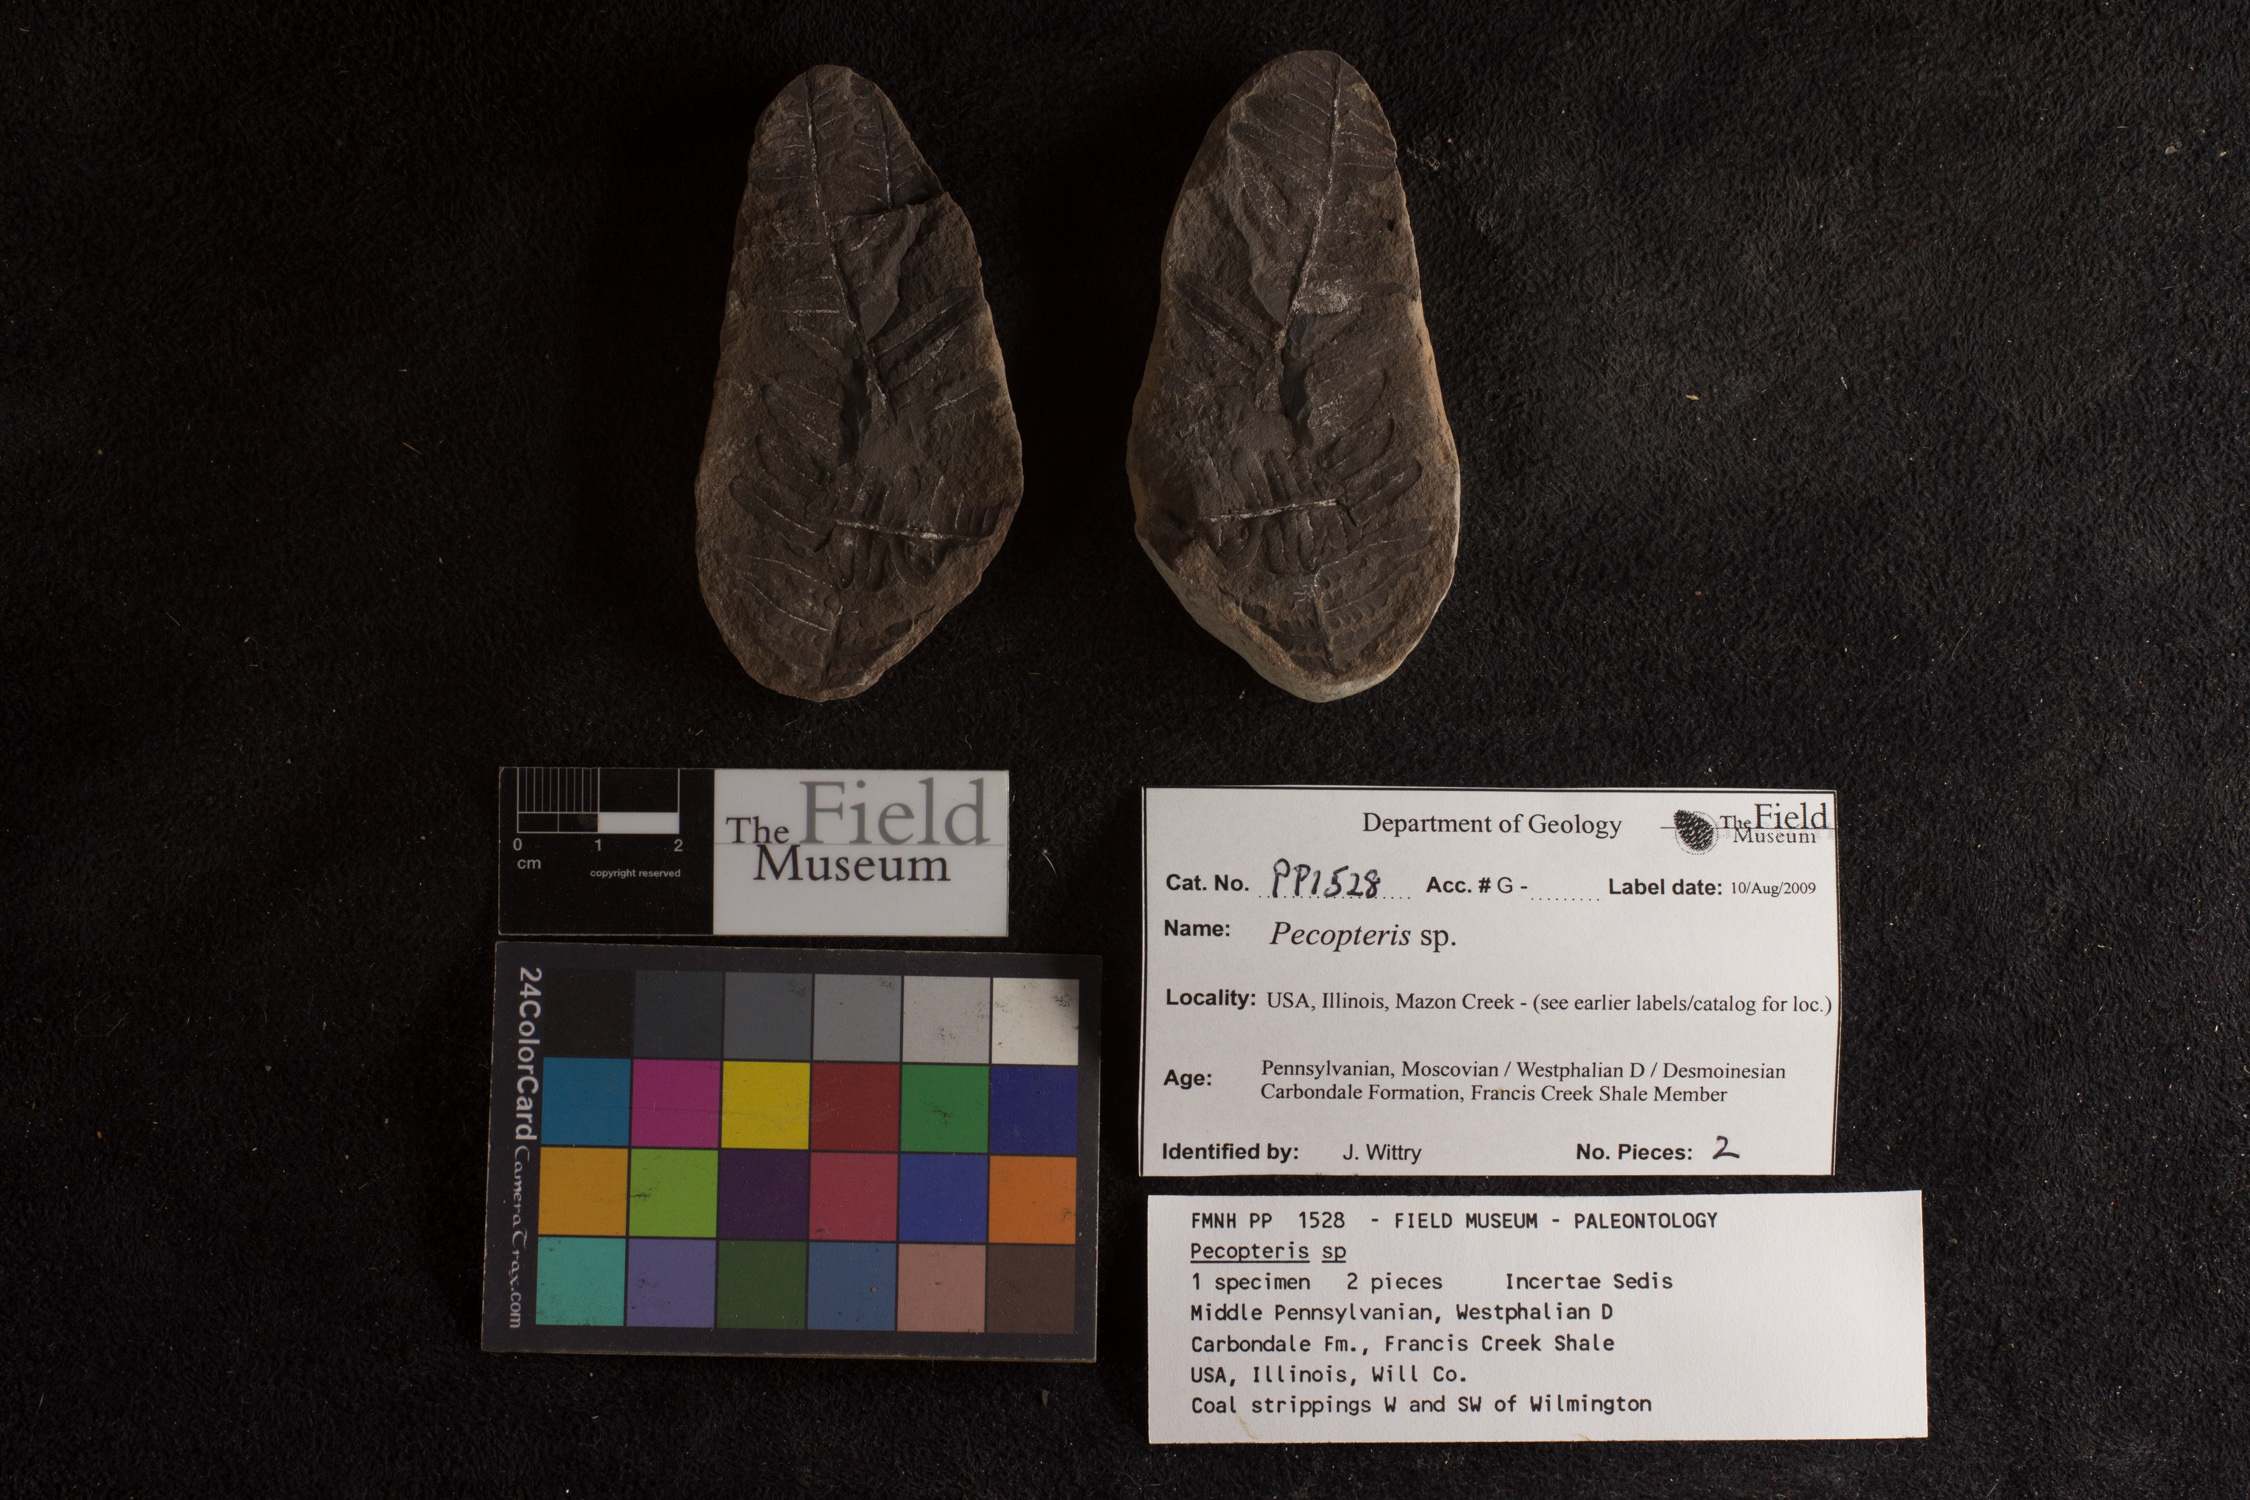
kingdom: Plantae
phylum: Tracheophyta
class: Polypodiopsida
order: Marattiales
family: Asterothecaceae
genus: Pecopteris
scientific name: Pecopteris
